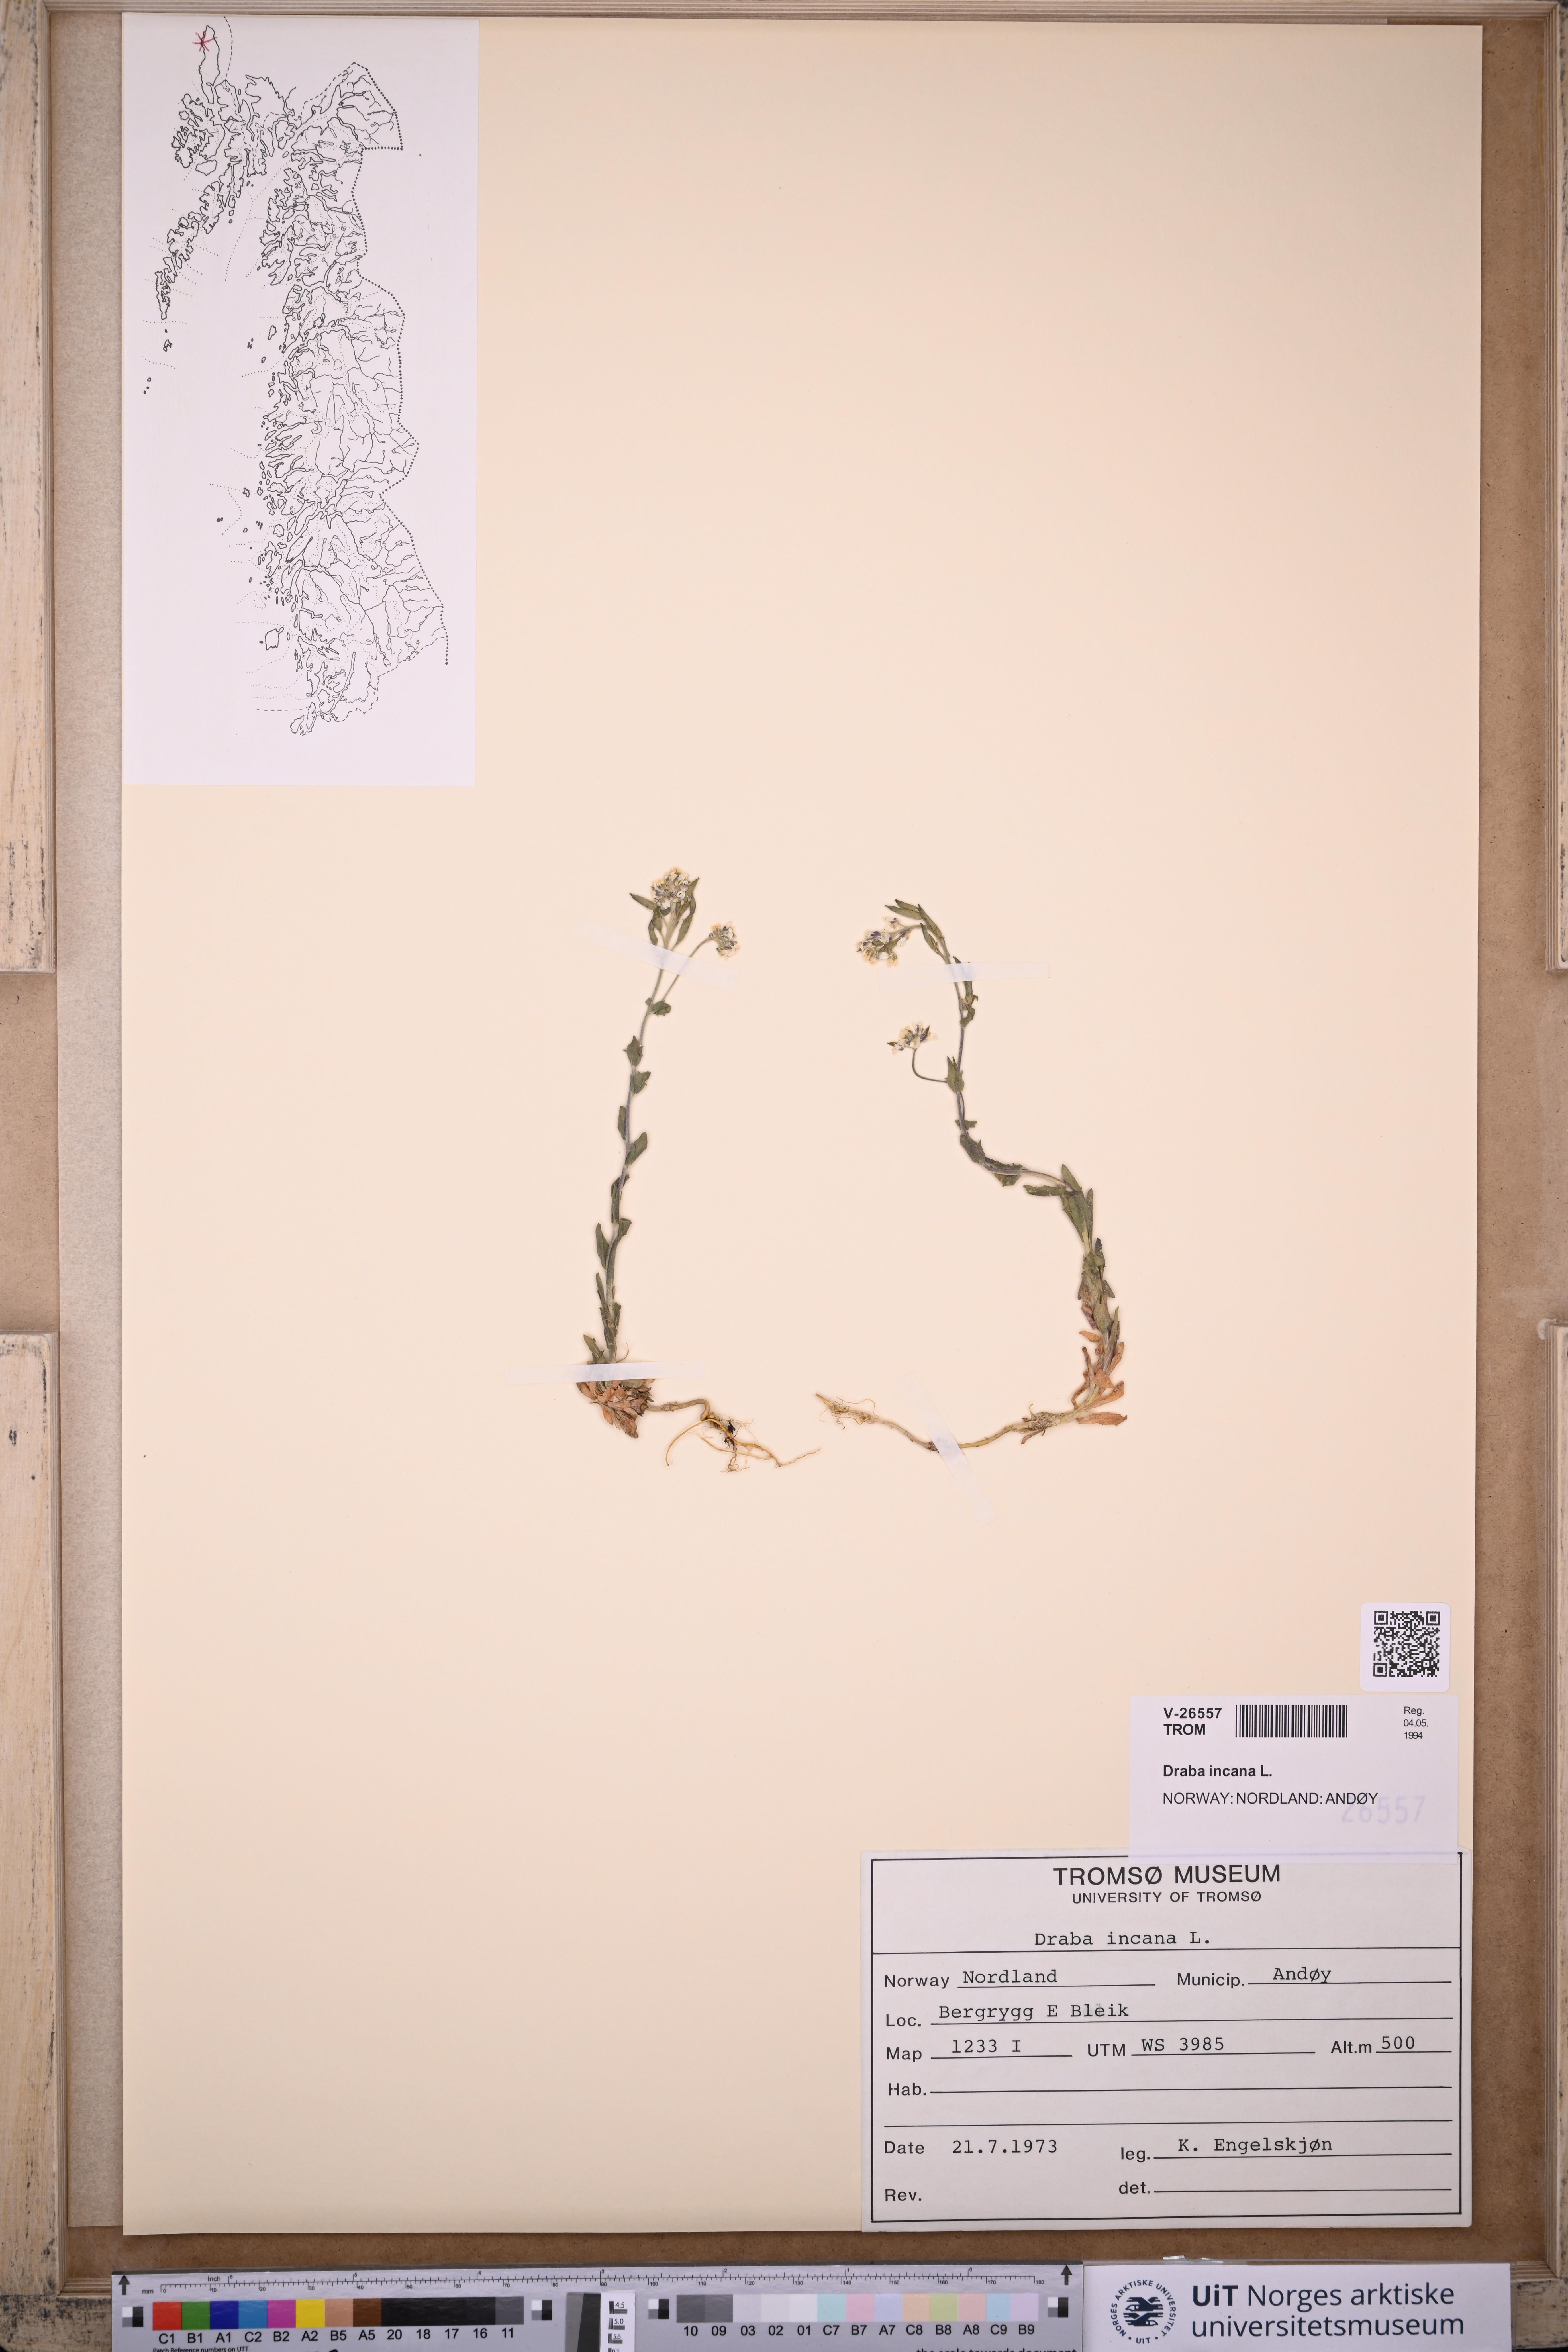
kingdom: Plantae
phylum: Tracheophyta
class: Magnoliopsida
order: Brassicales
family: Brassicaceae
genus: Draba
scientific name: Draba incana
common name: Hoary whitlow-grass
